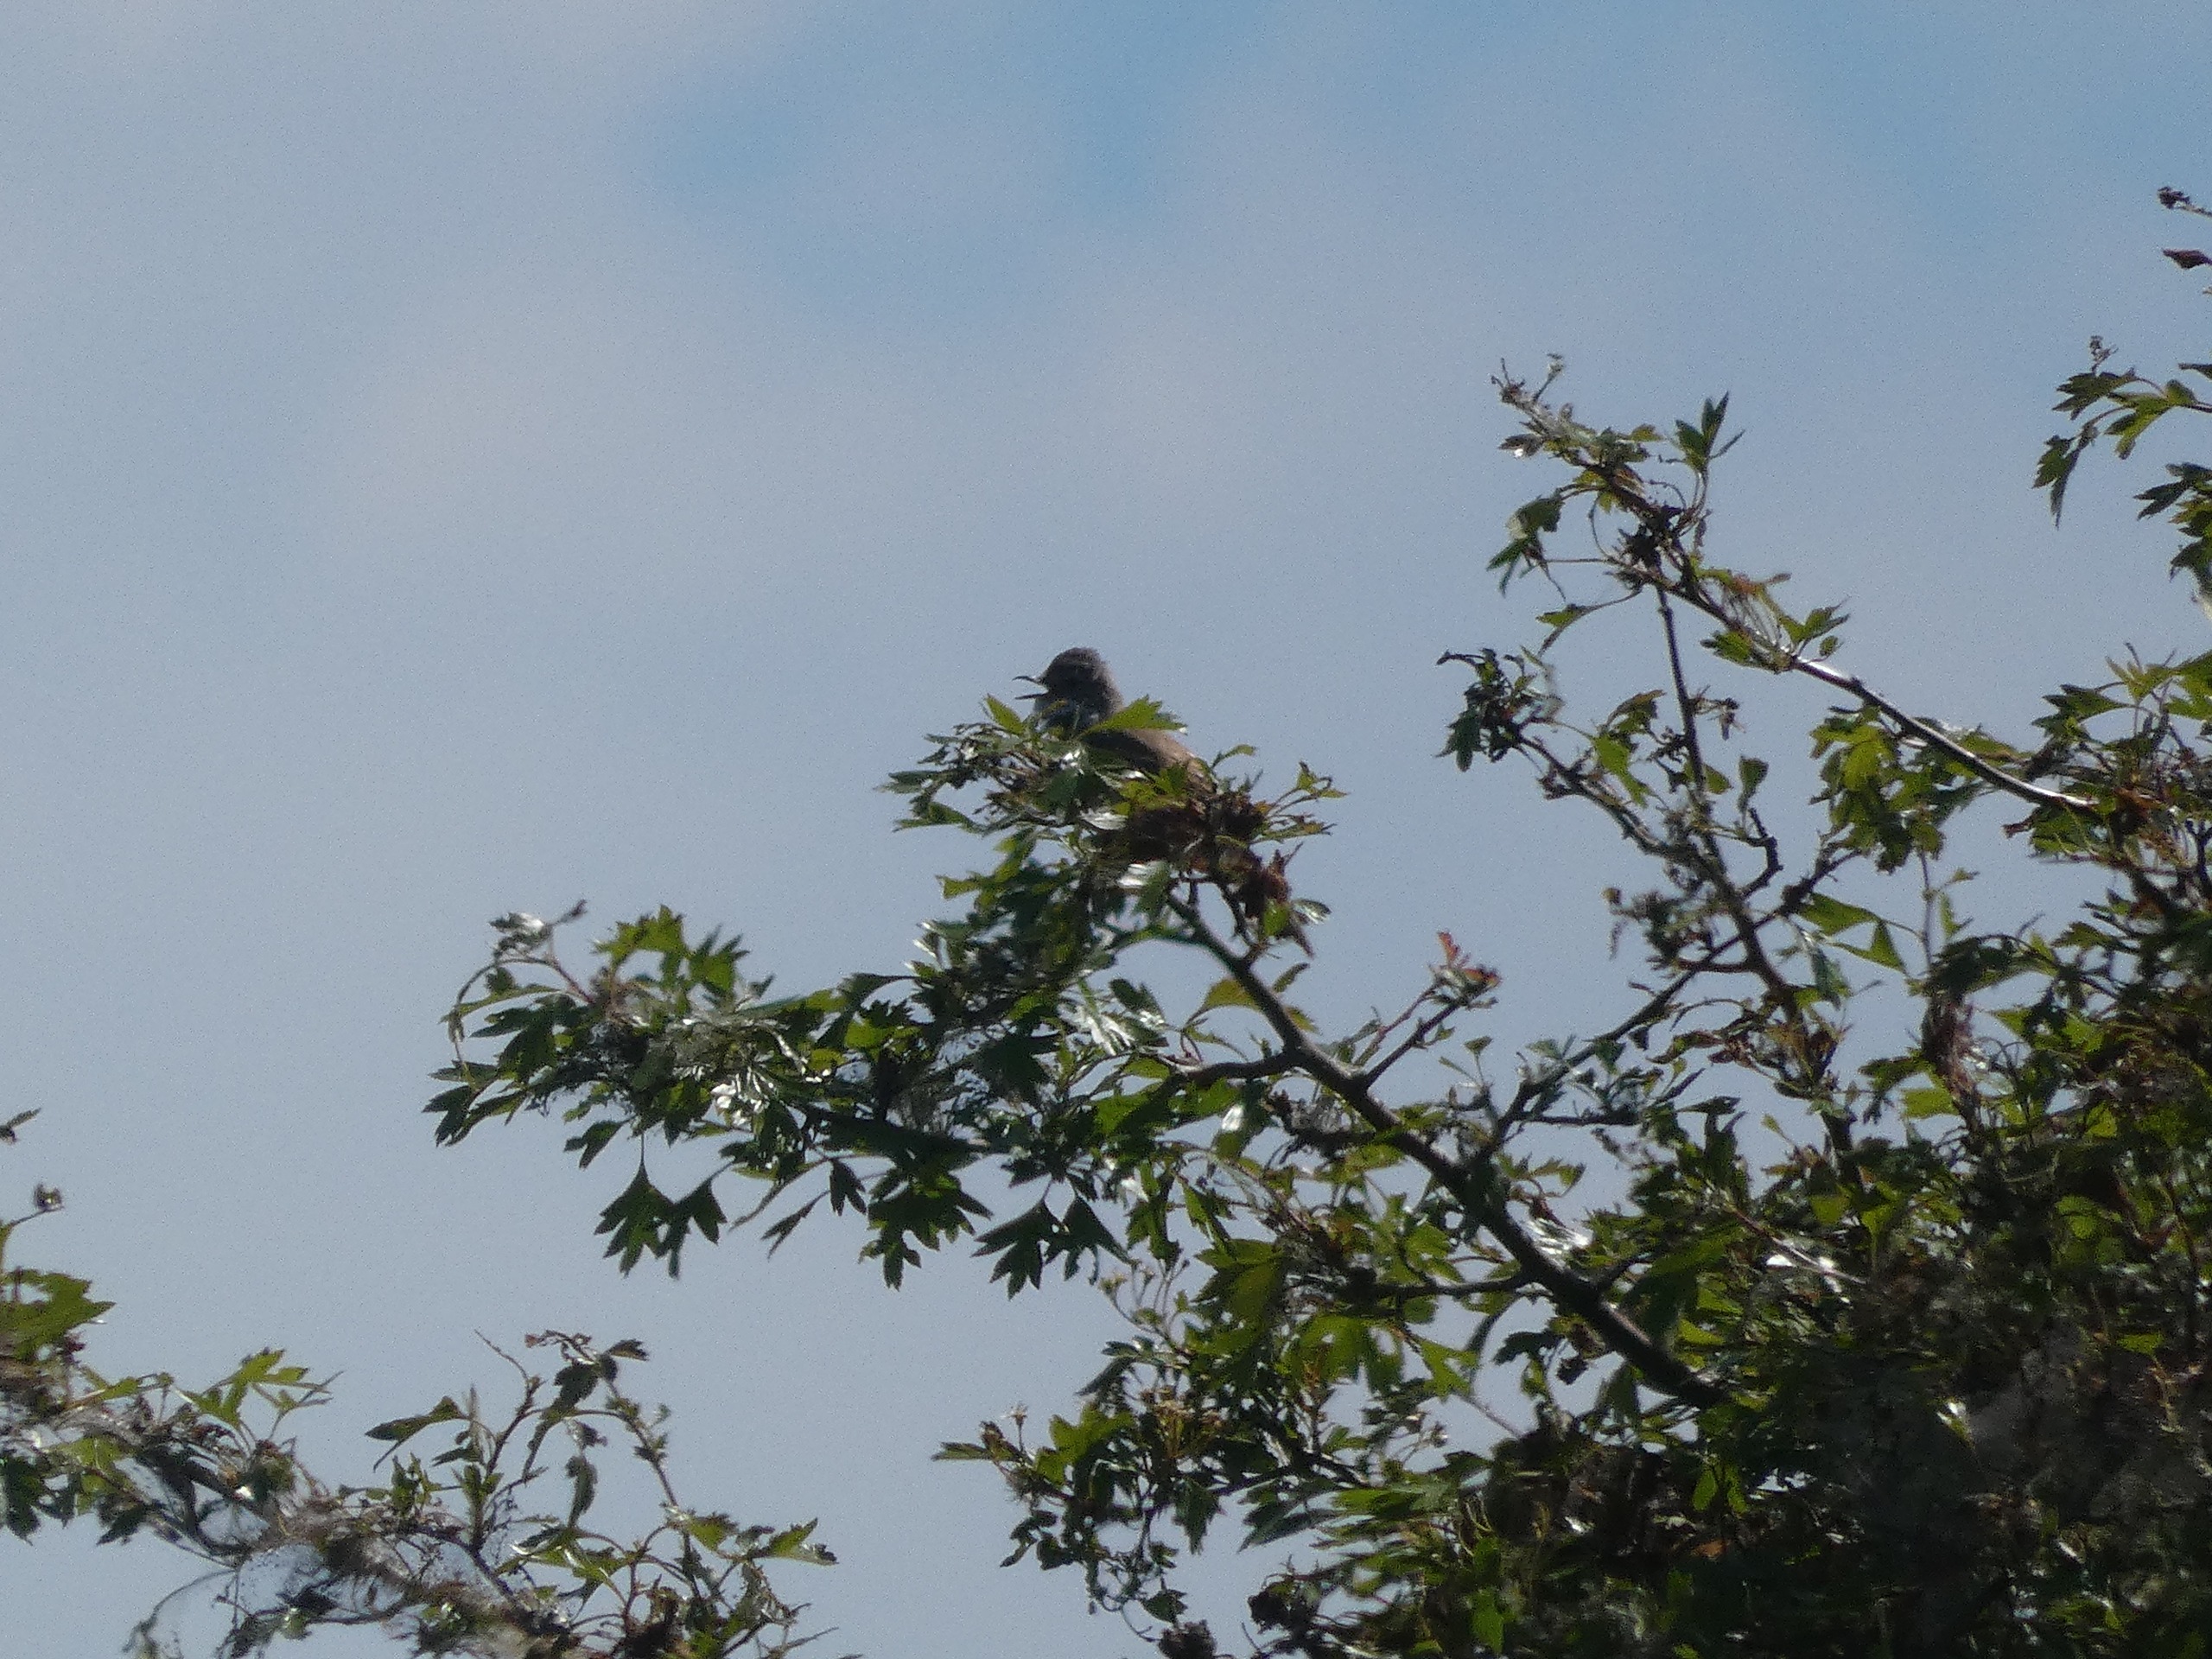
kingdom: Animalia
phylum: Chordata
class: Aves
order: Passeriformes
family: Sylviidae
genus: Sylvia
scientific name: Sylvia communis
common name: Tornsanger
